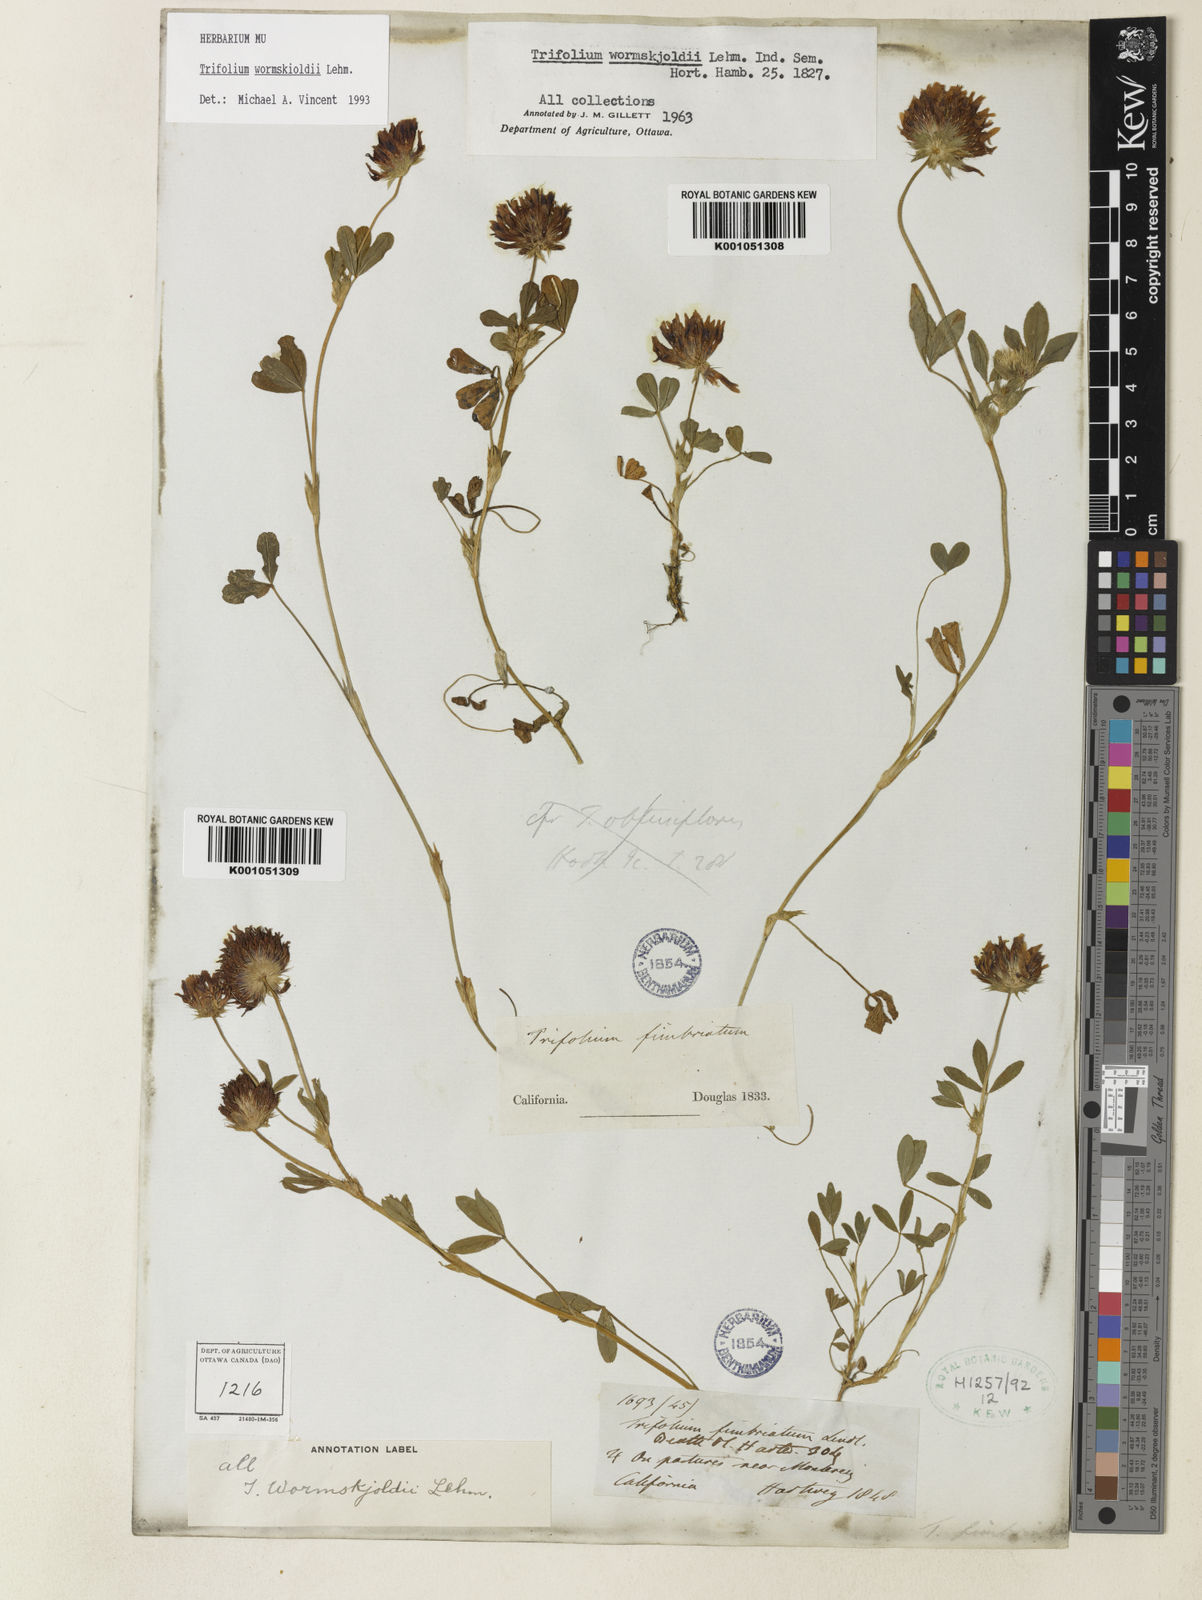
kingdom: Plantae
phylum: Tracheophyta
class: Magnoliopsida
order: Fabales
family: Fabaceae
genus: Trifolium
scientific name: Trifolium willdenovii
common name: Tomcat clover
